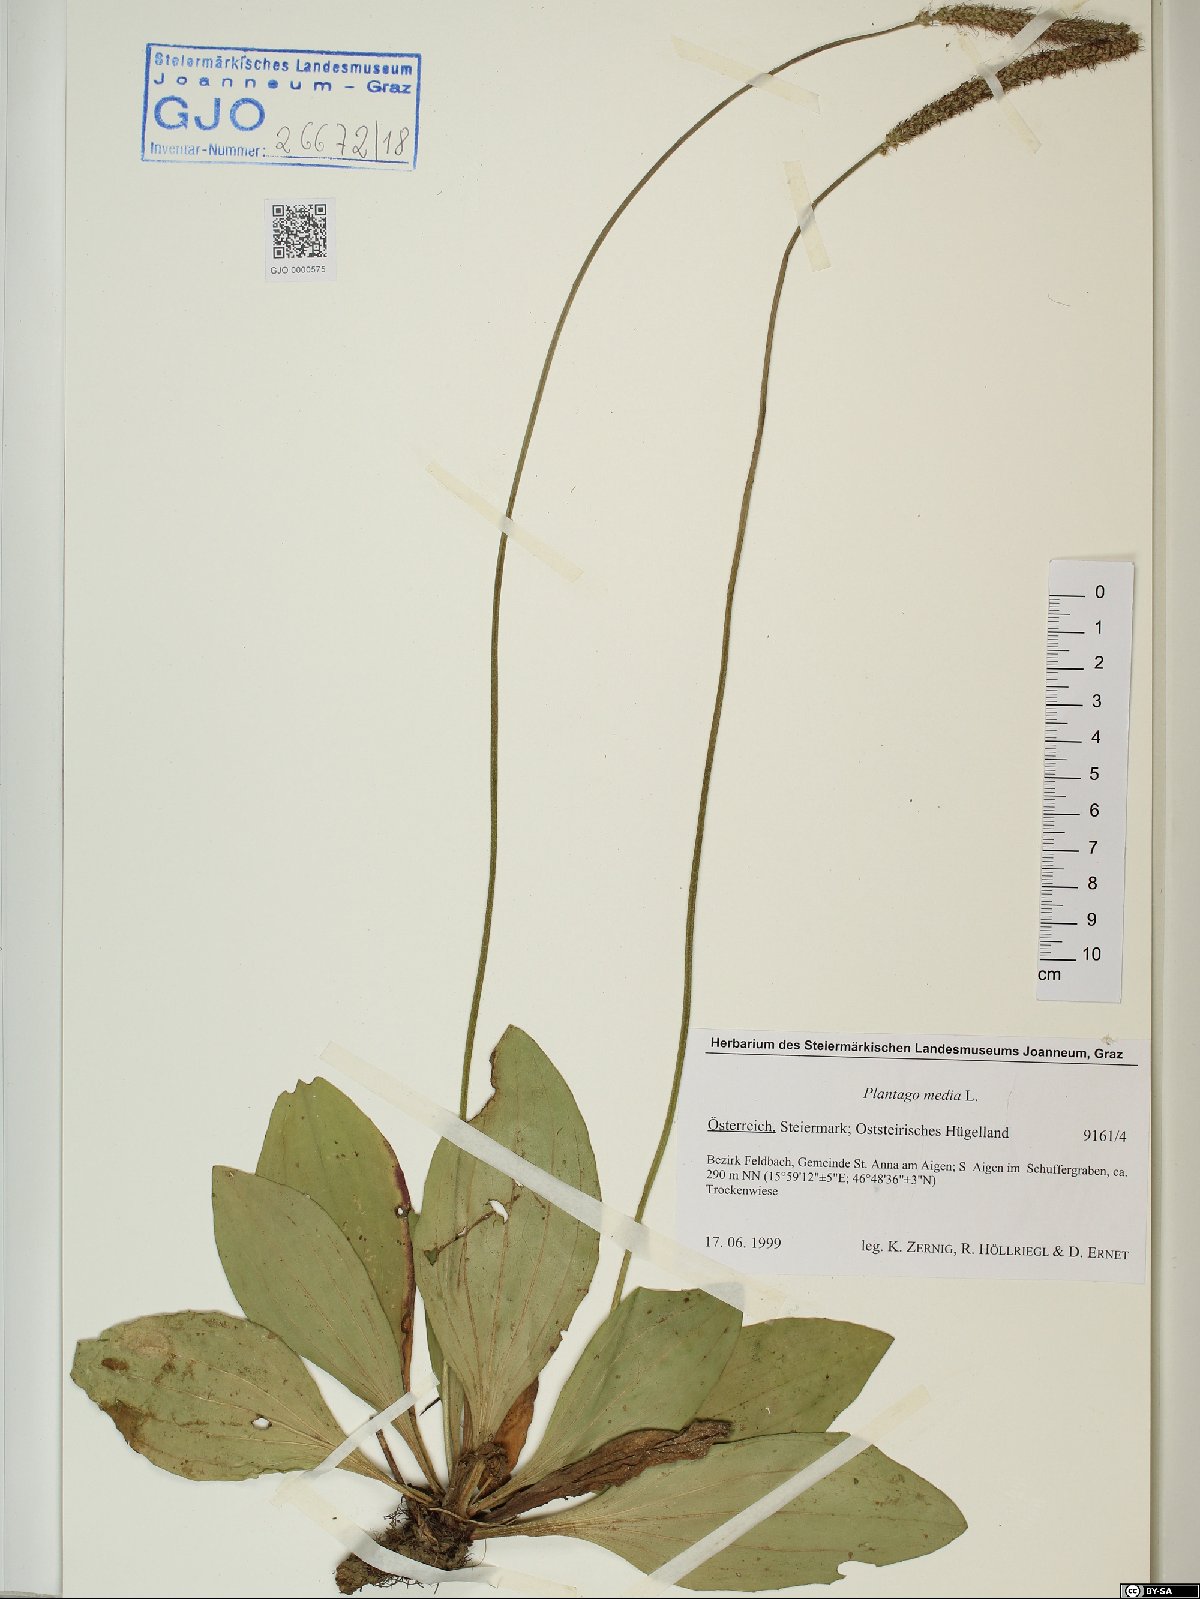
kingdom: Plantae
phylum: Tracheophyta
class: Magnoliopsida
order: Lamiales
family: Plantaginaceae
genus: Plantago
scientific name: Plantago media
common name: Hoary plantain
